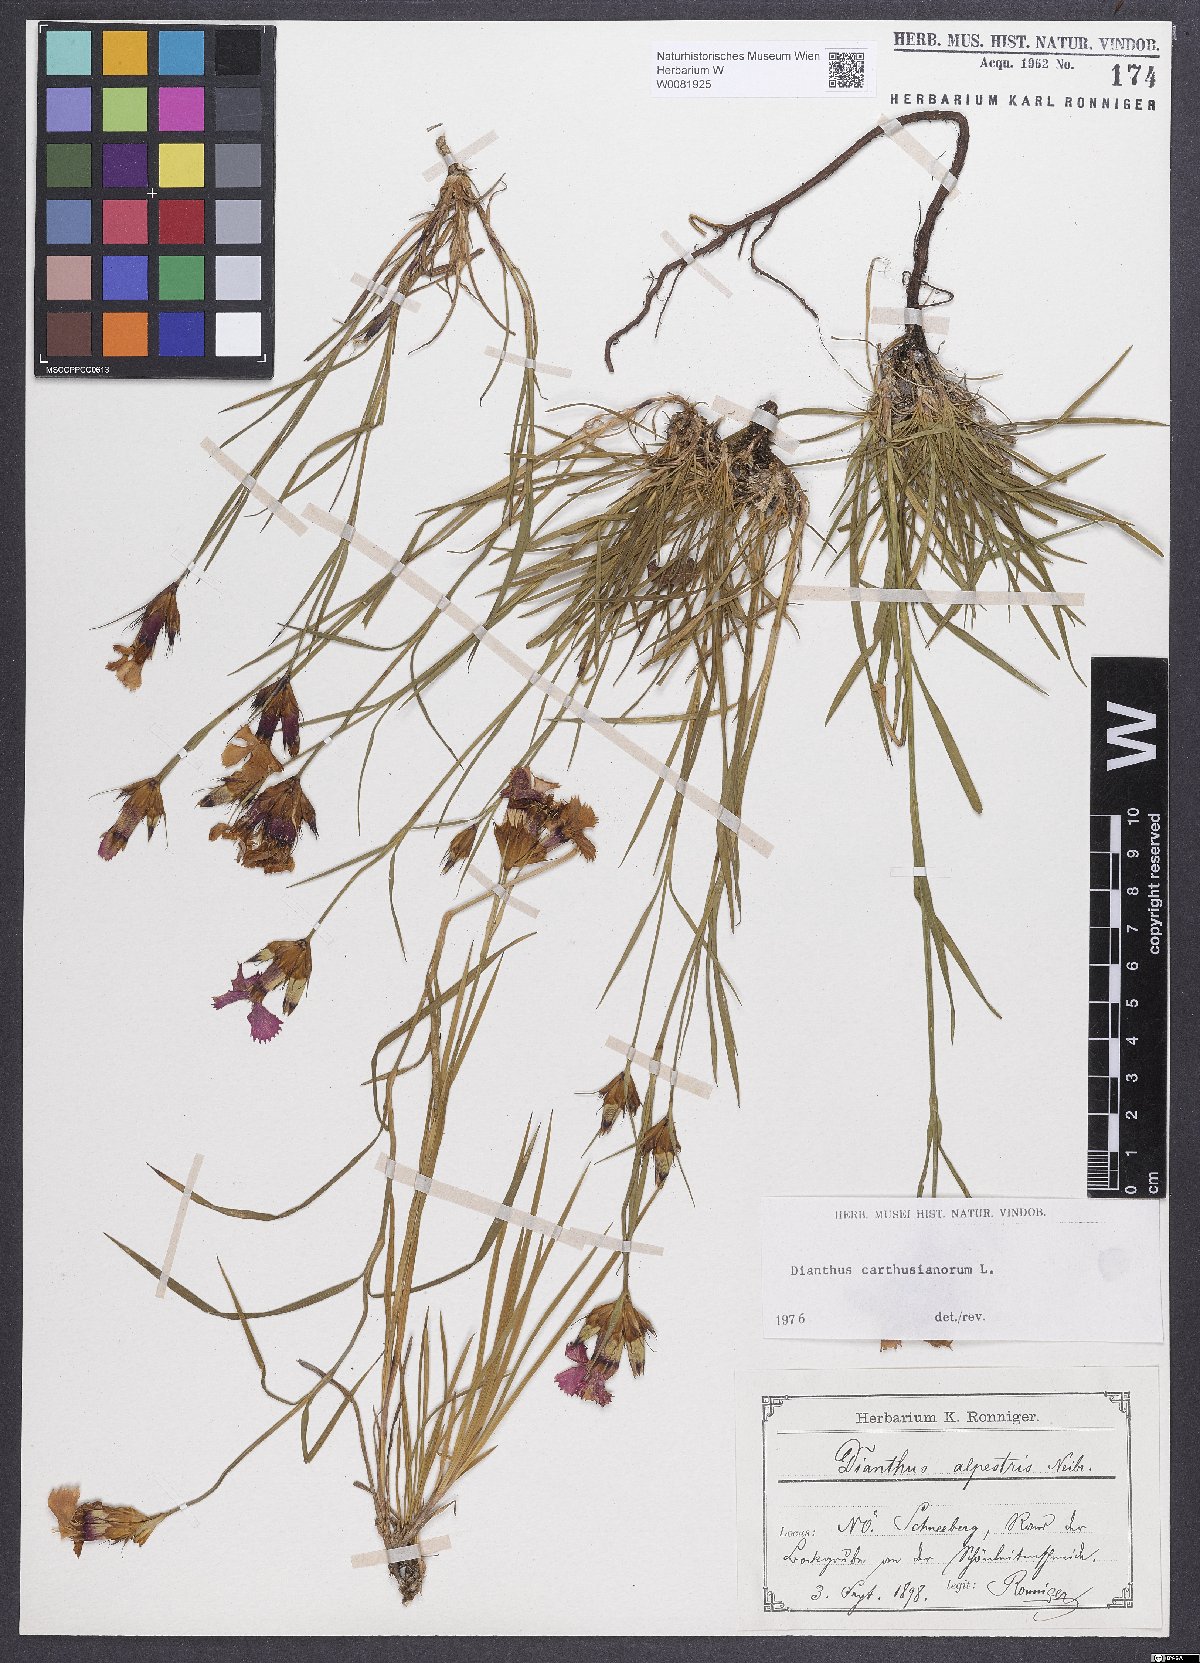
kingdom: Plantae
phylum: Tracheophyta
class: Magnoliopsida
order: Caryophyllales
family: Caryophyllaceae
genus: Dianthus
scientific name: Dianthus carthusianorum
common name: Carthusian pink
